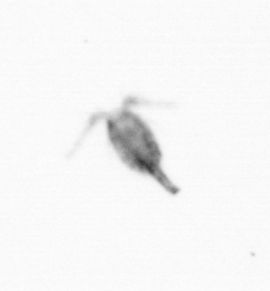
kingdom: Animalia
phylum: Arthropoda
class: Copepoda
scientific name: Copepoda
